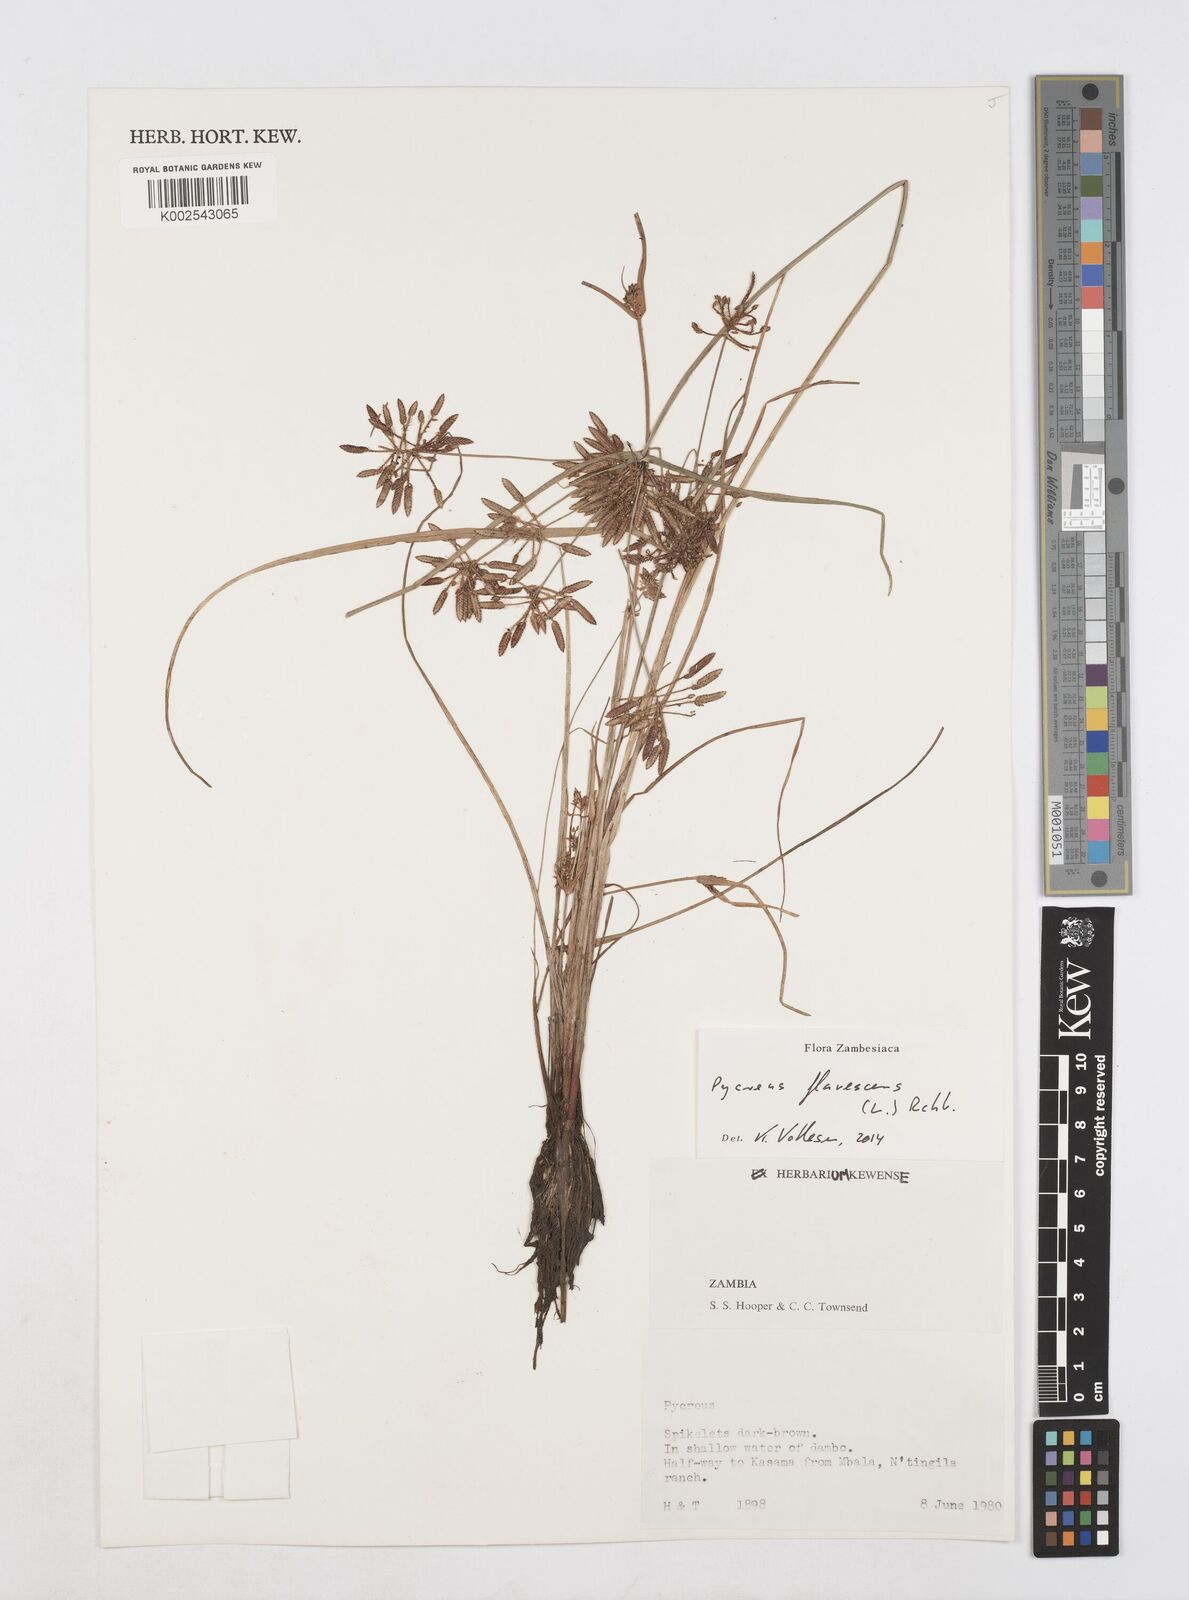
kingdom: Plantae
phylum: Tracheophyta
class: Liliopsida
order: Poales
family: Cyperaceae
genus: Cyperus
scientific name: Cyperus flavescens
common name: Yellow galingale
